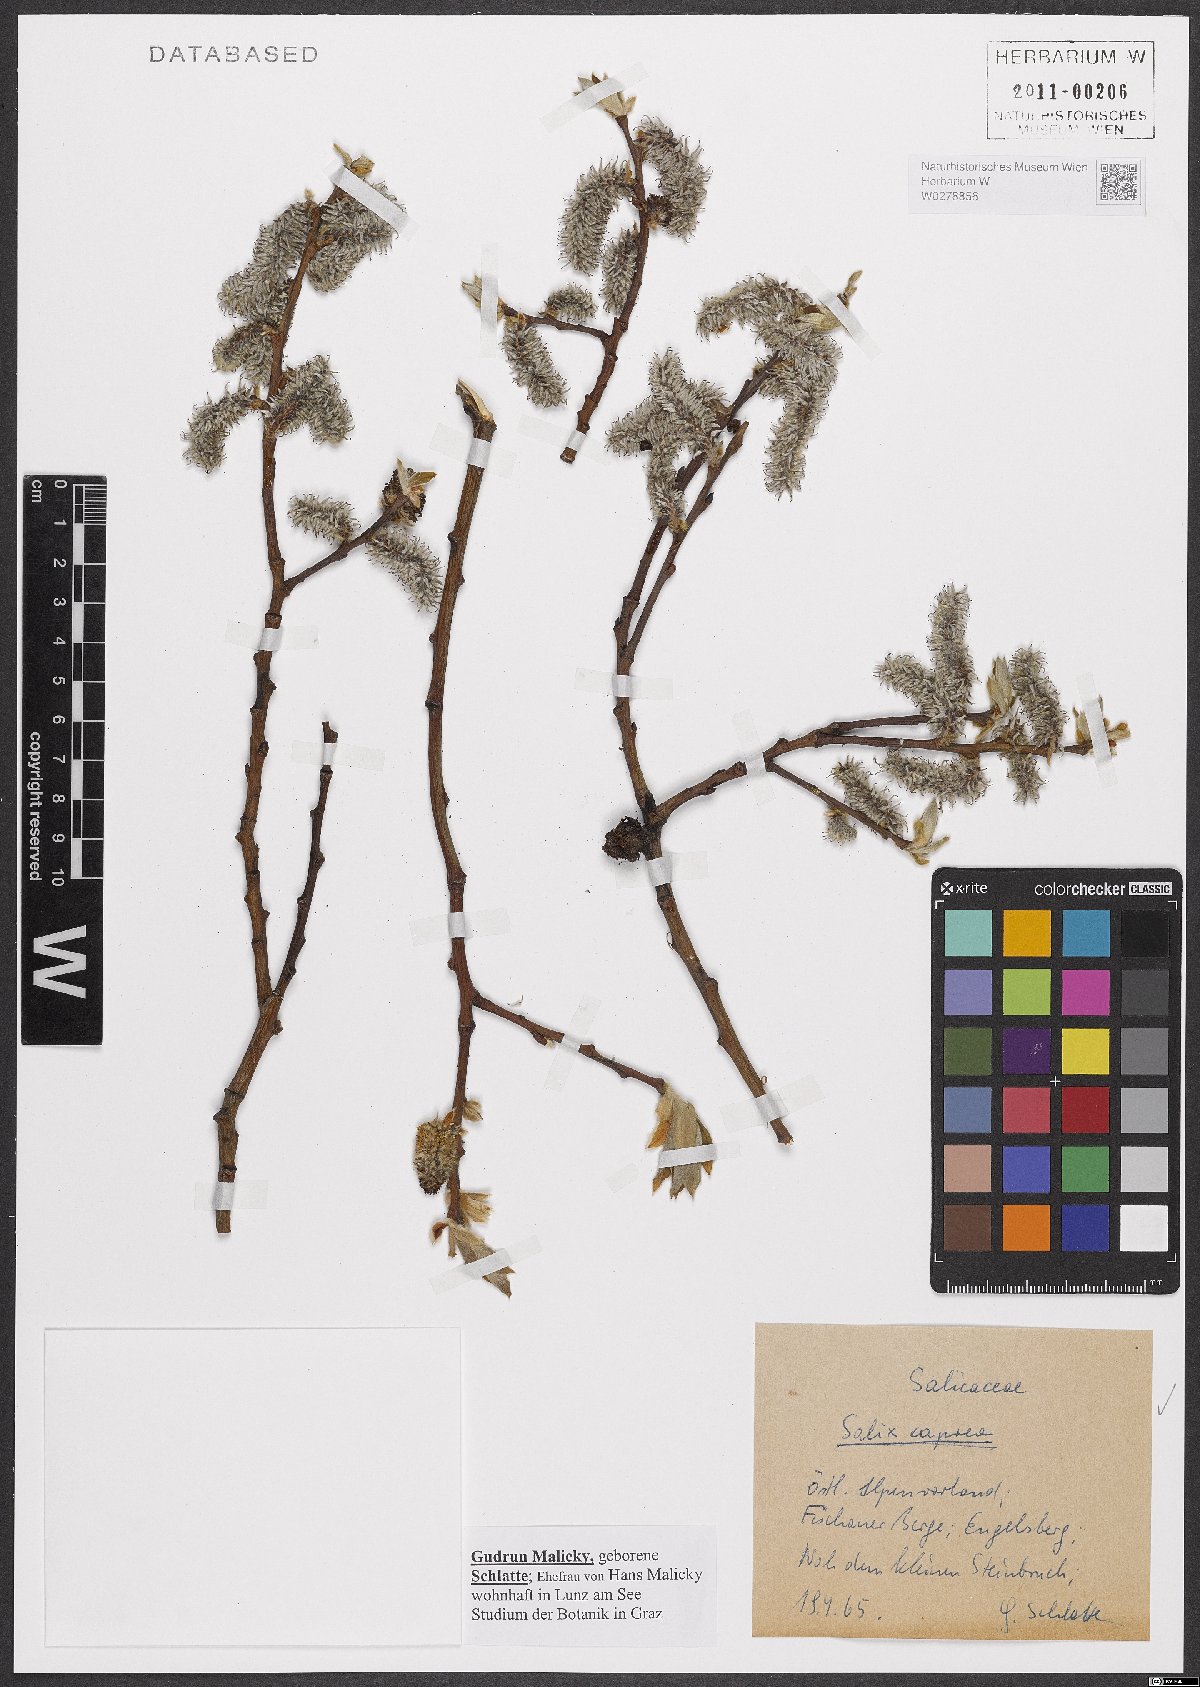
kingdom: Plantae
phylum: Tracheophyta
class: Magnoliopsida
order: Malpighiales
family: Salicaceae
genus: Salix
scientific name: Salix caprea
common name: Goat willow
